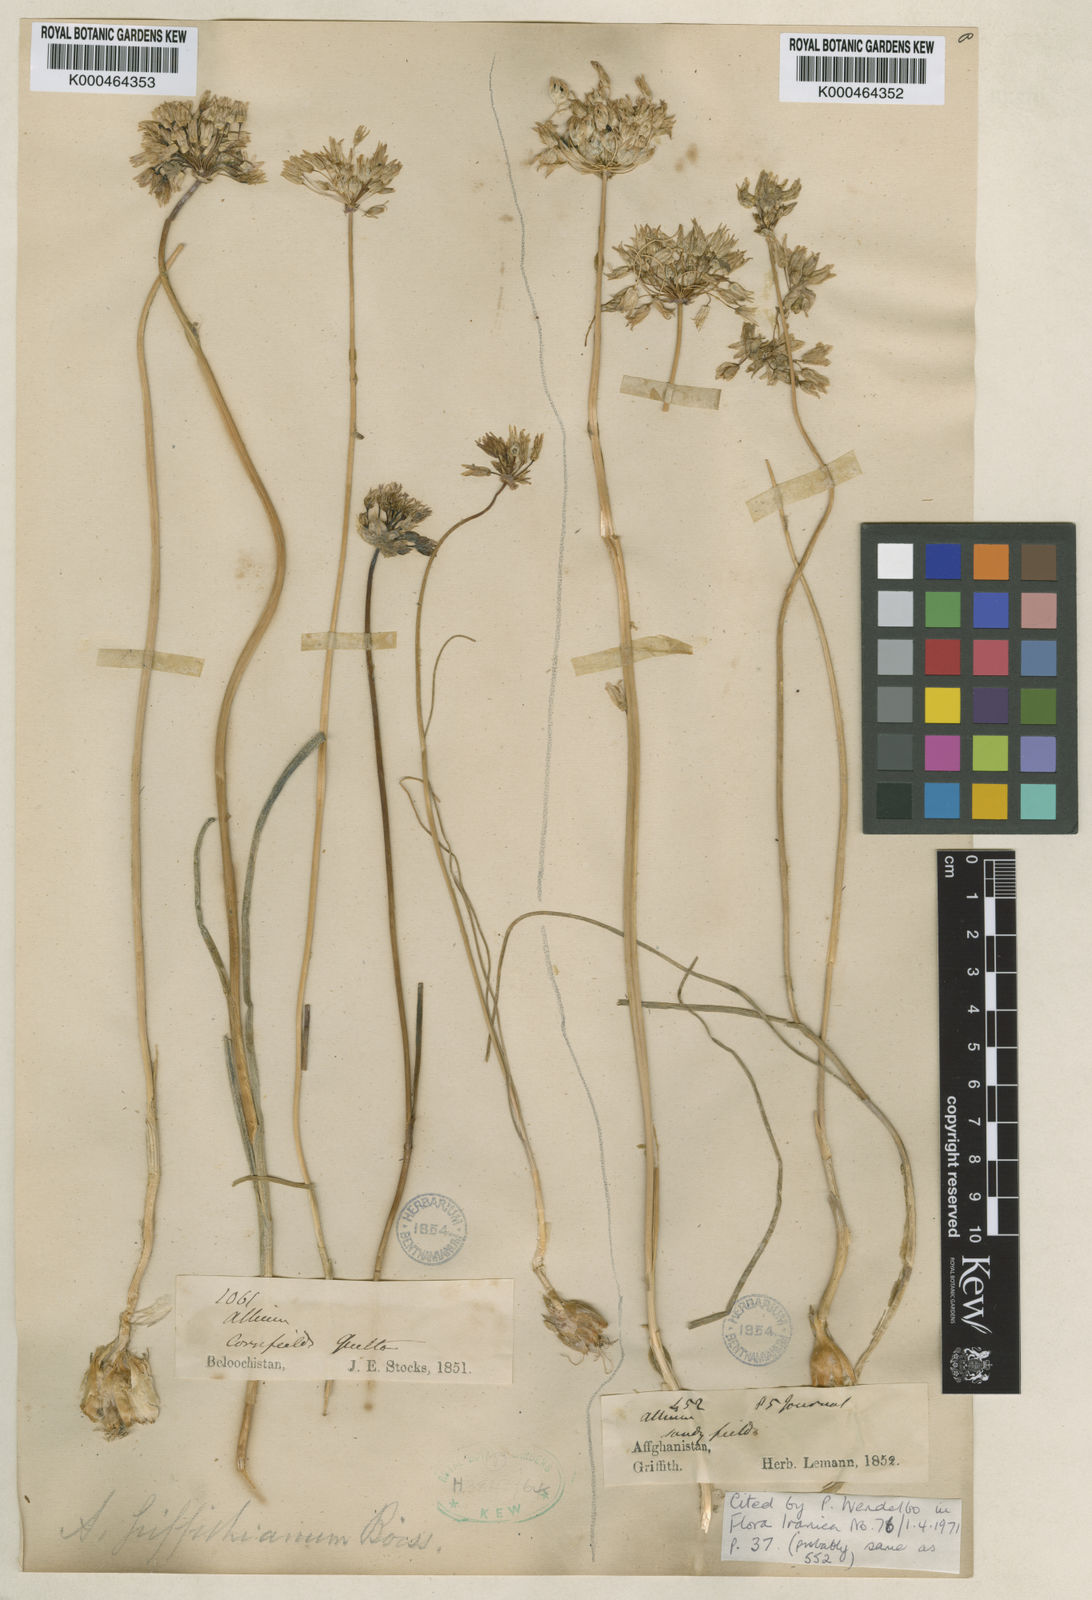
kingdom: Plantae
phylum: Tracheophyta
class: Liliopsida
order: Asparagales
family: Amaryllidaceae
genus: Allium
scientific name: Allium griffithianum
